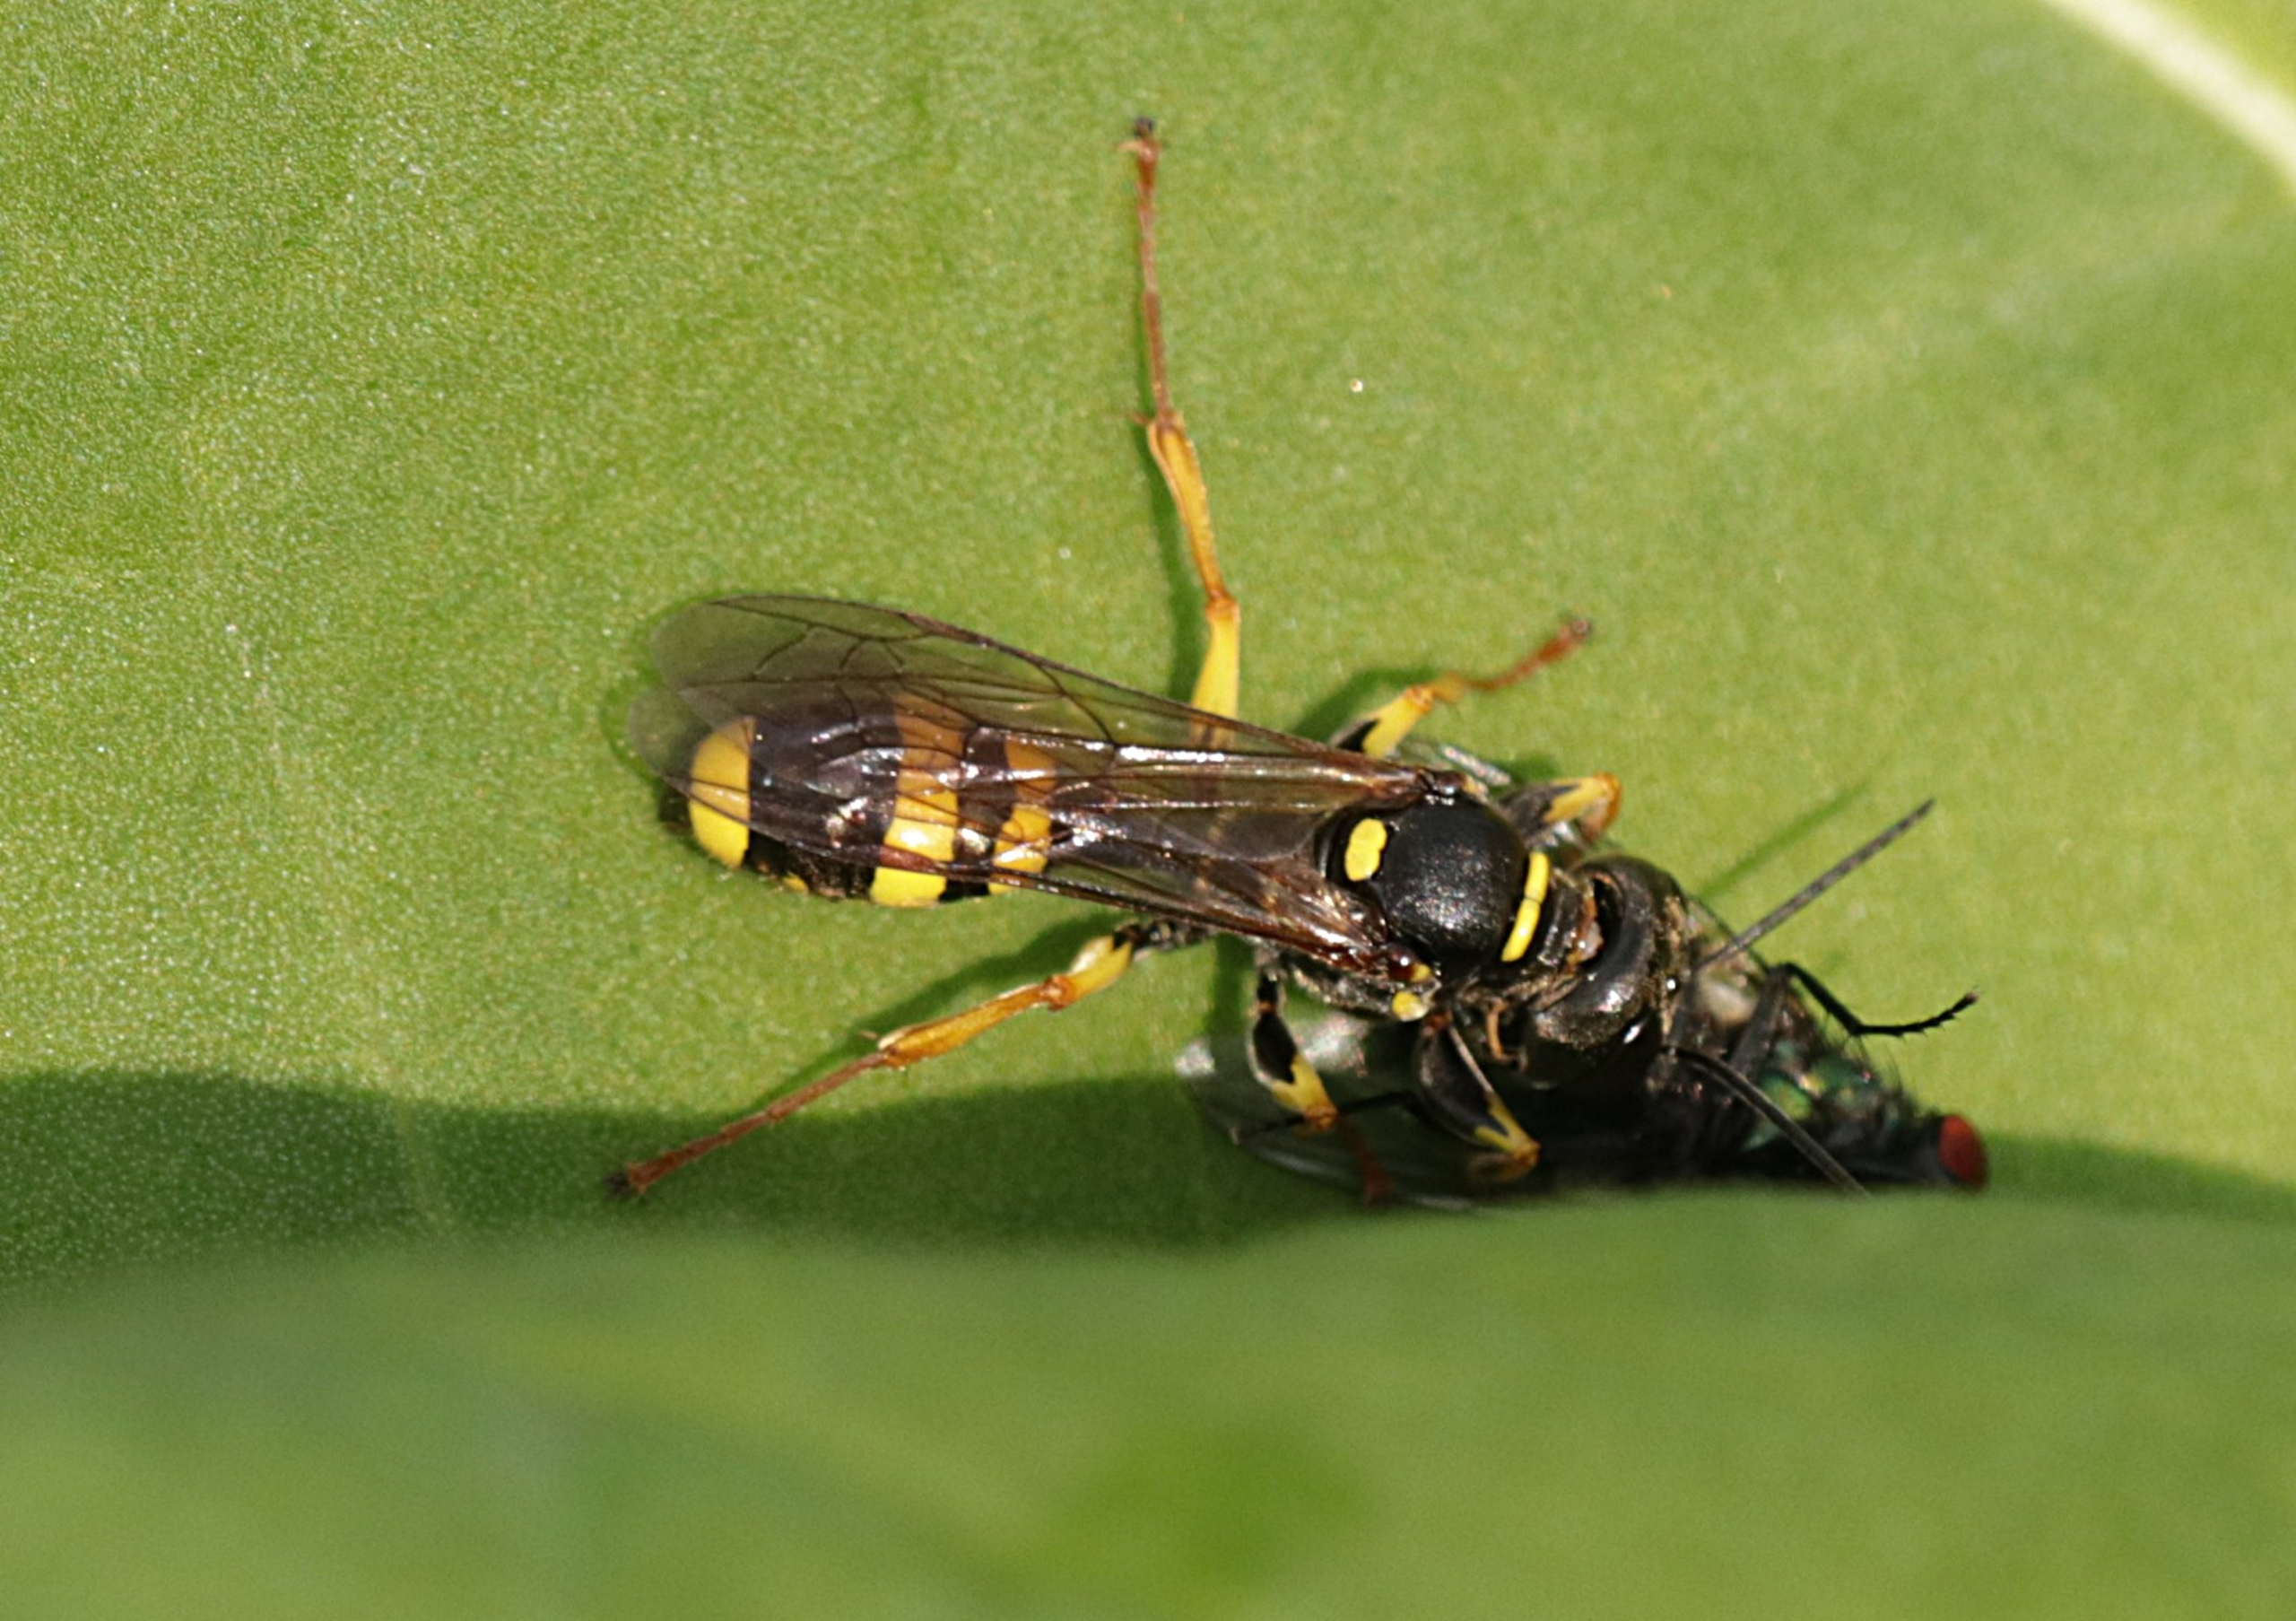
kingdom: Animalia
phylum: Arthropoda
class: Insecta
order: Hymenoptera
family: Crabronidae
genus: Mellinus
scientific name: Mellinus arvensis
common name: Efterårsgravehveps
